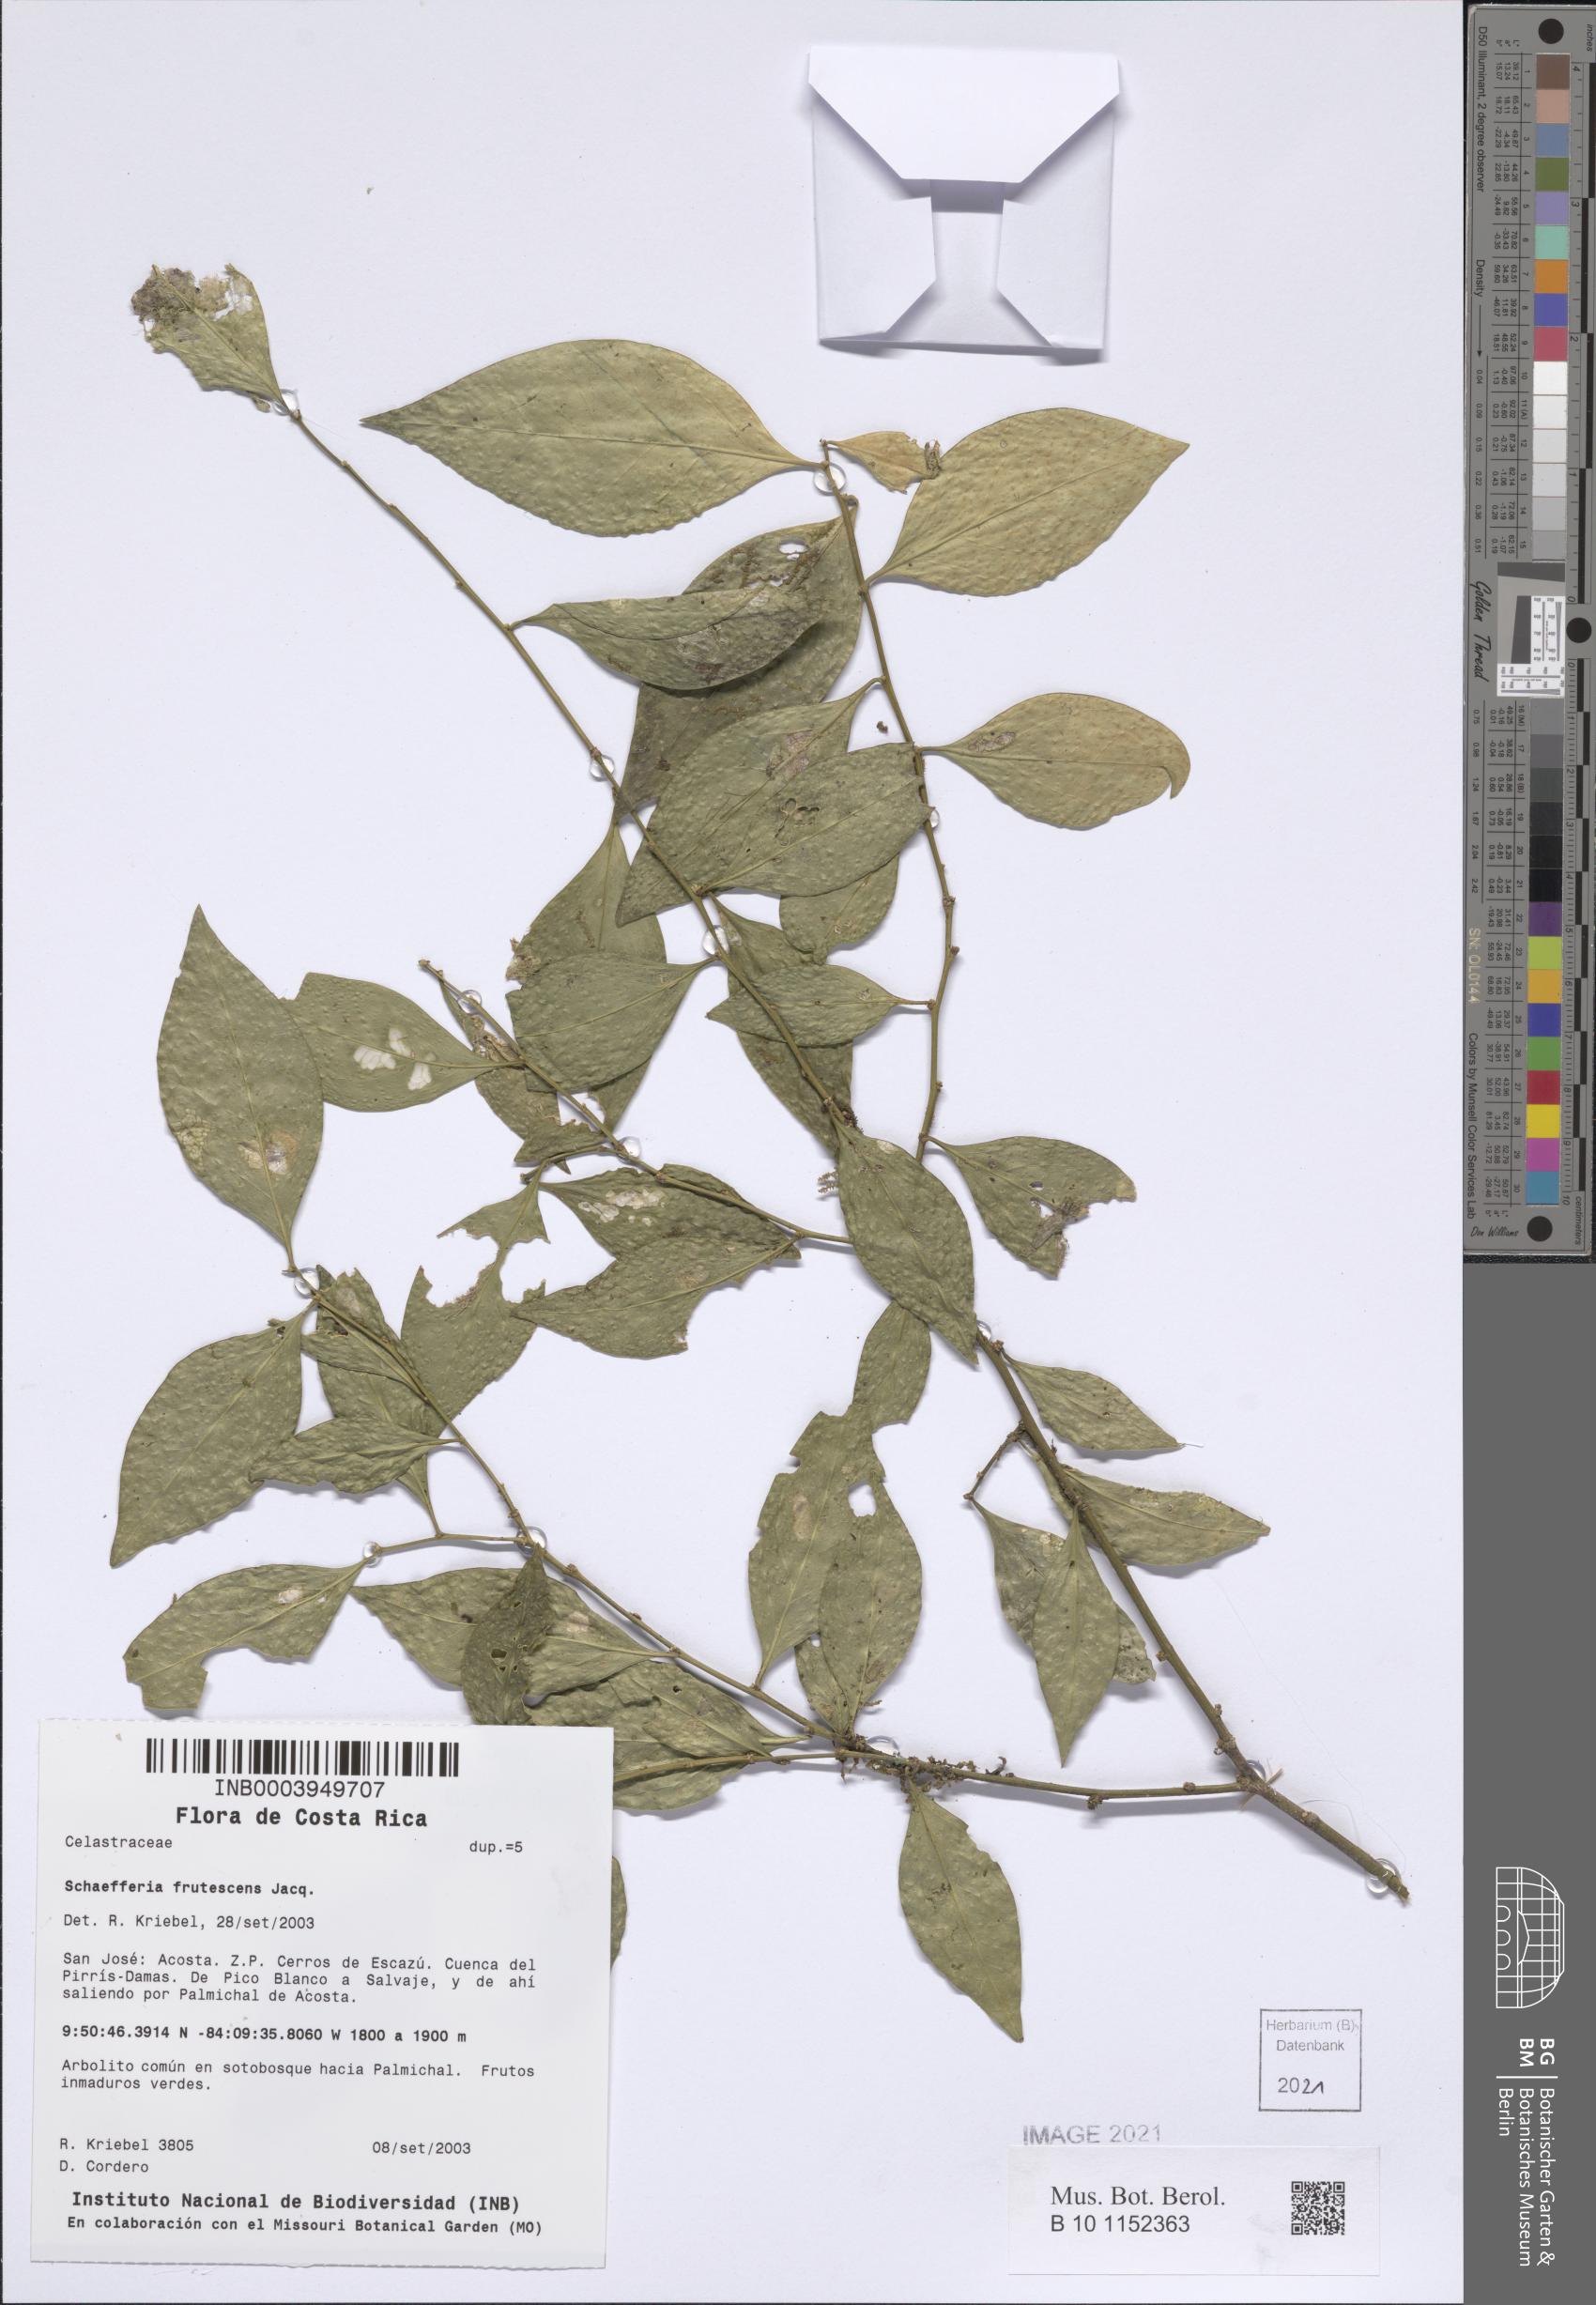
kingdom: Plantae
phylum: Tracheophyta
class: Magnoliopsida
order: Celastrales
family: Celastraceae
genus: Schaefferia
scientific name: Schaefferia frutescens
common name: Boxwood
